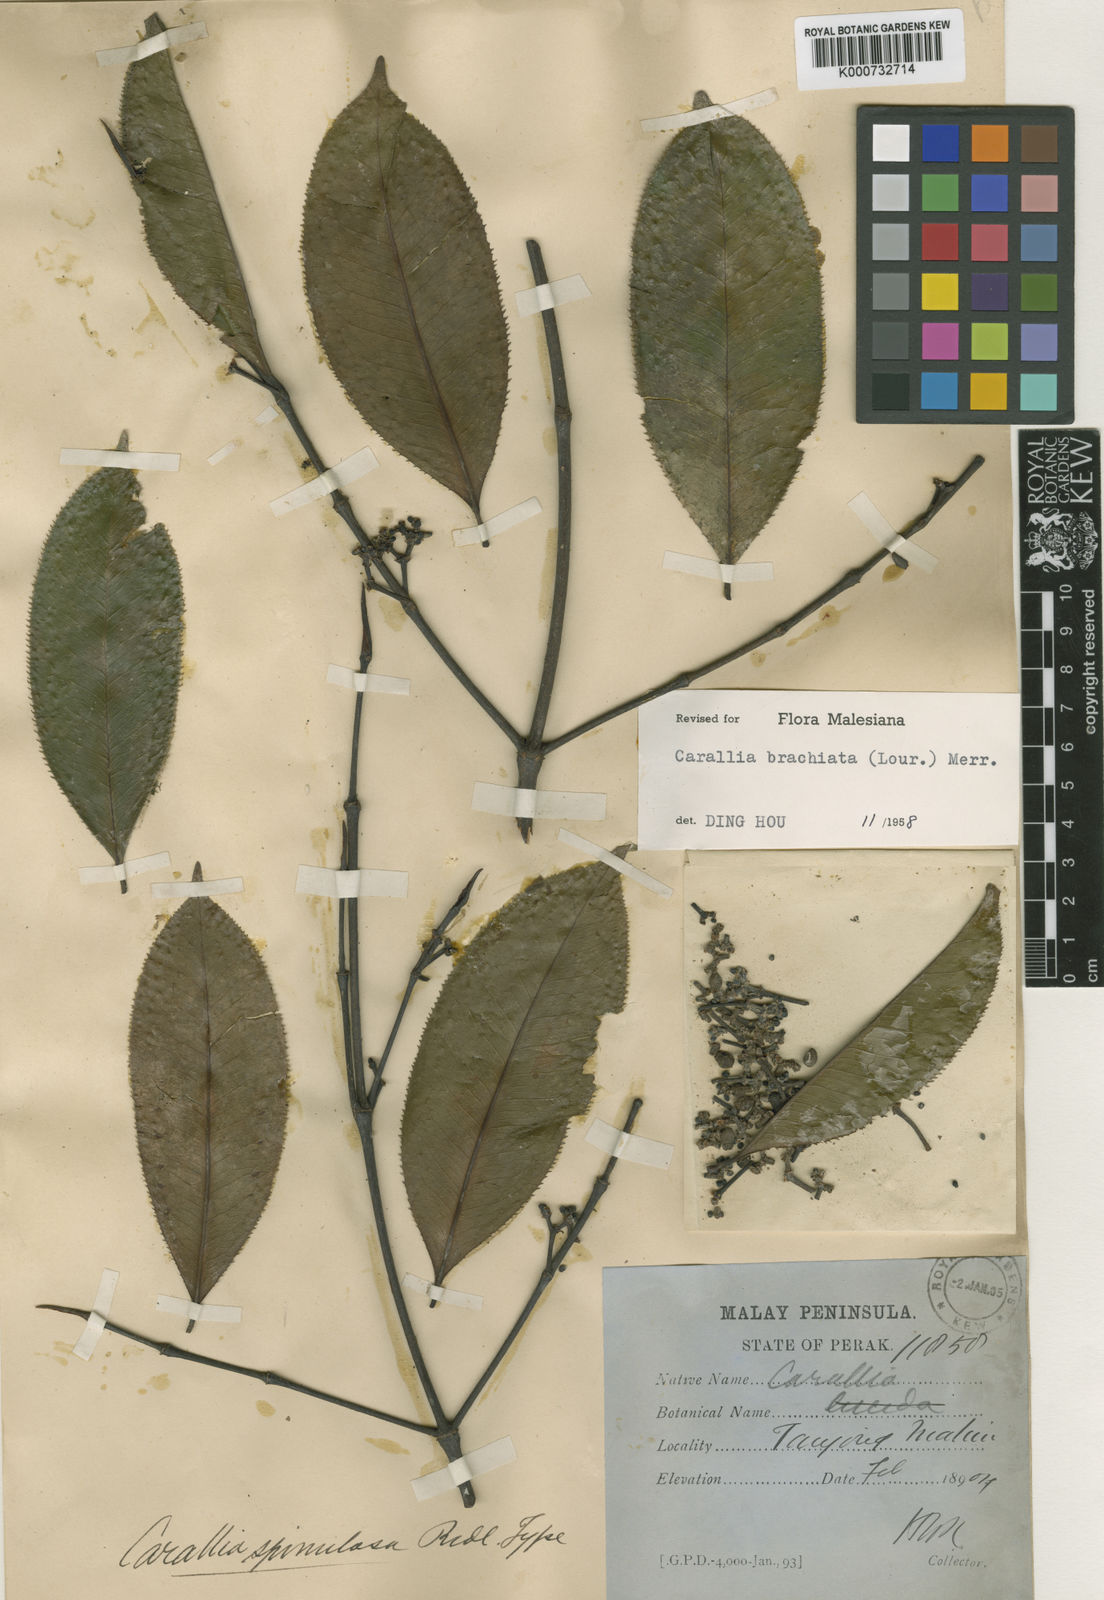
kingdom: Plantae
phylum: Tracheophyta
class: Magnoliopsida
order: Malpighiales
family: Rhizophoraceae
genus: Carallia
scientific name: Carallia brachiata
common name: Carallawood
